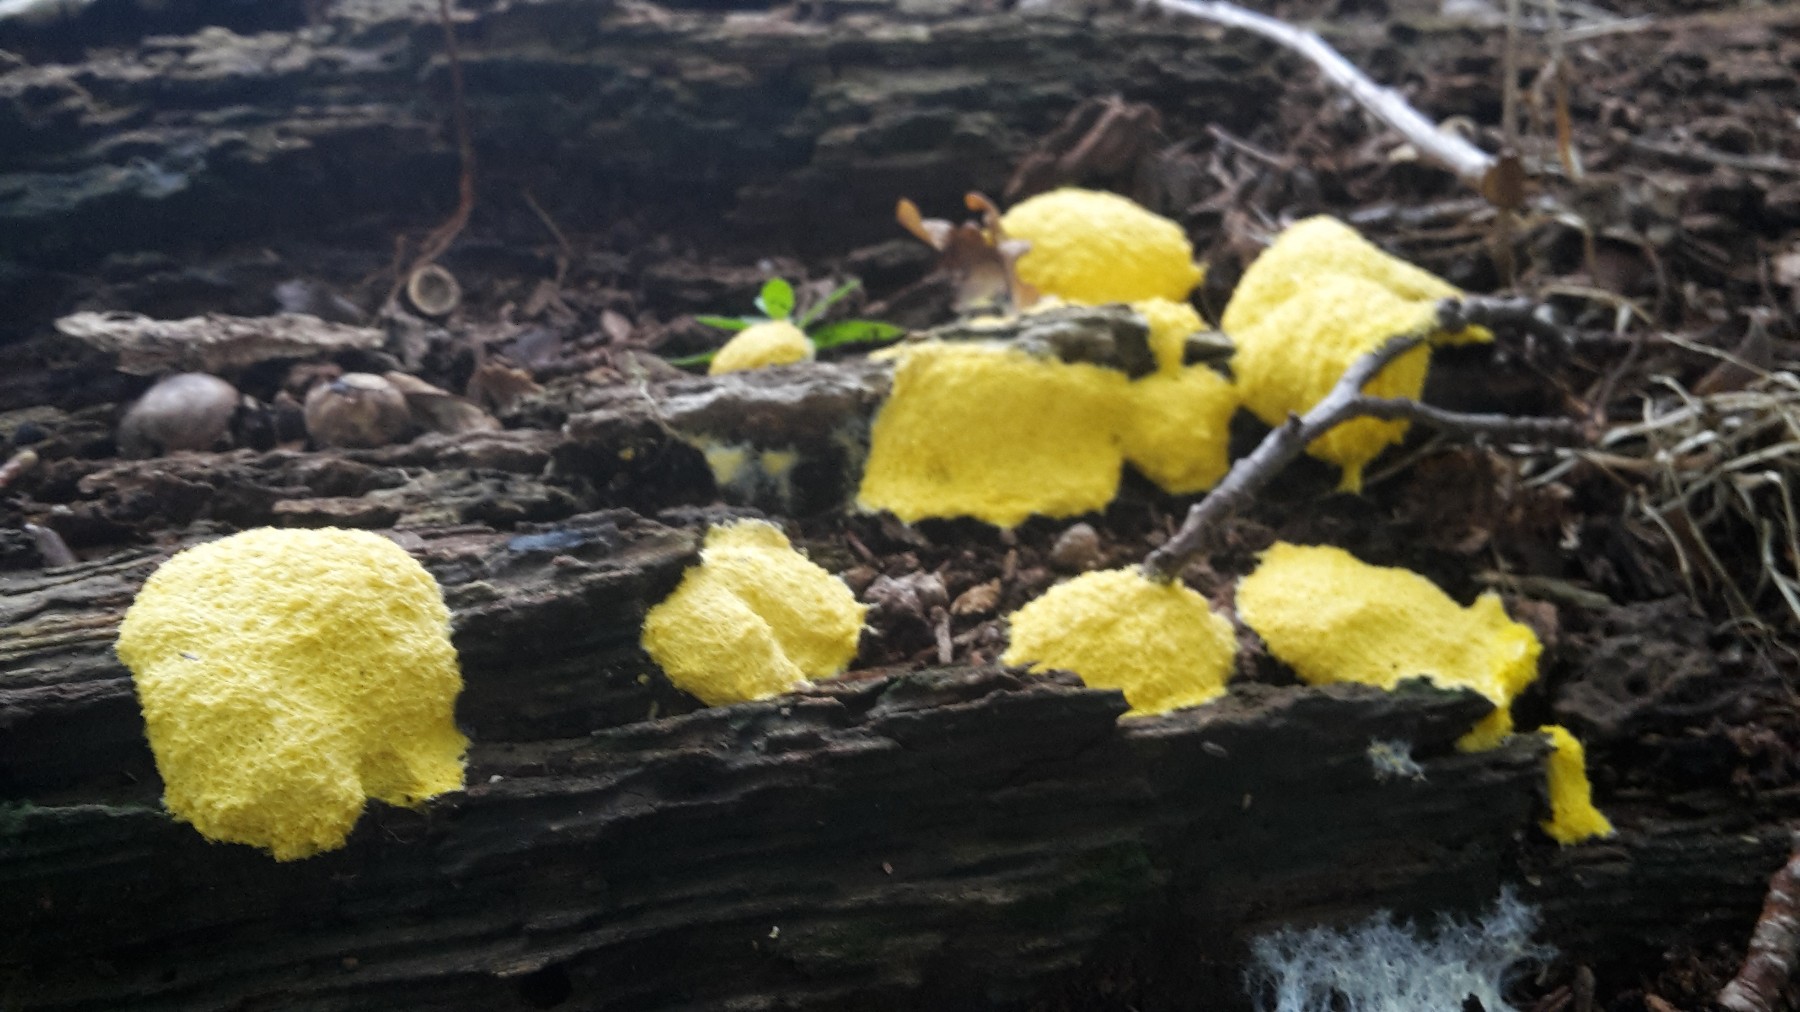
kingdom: Protozoa
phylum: Mycetozoa
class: Myxomycetes
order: Physarales
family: Physaraceae
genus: Fuligo
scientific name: Fuligo septica
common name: gul troldsmør
